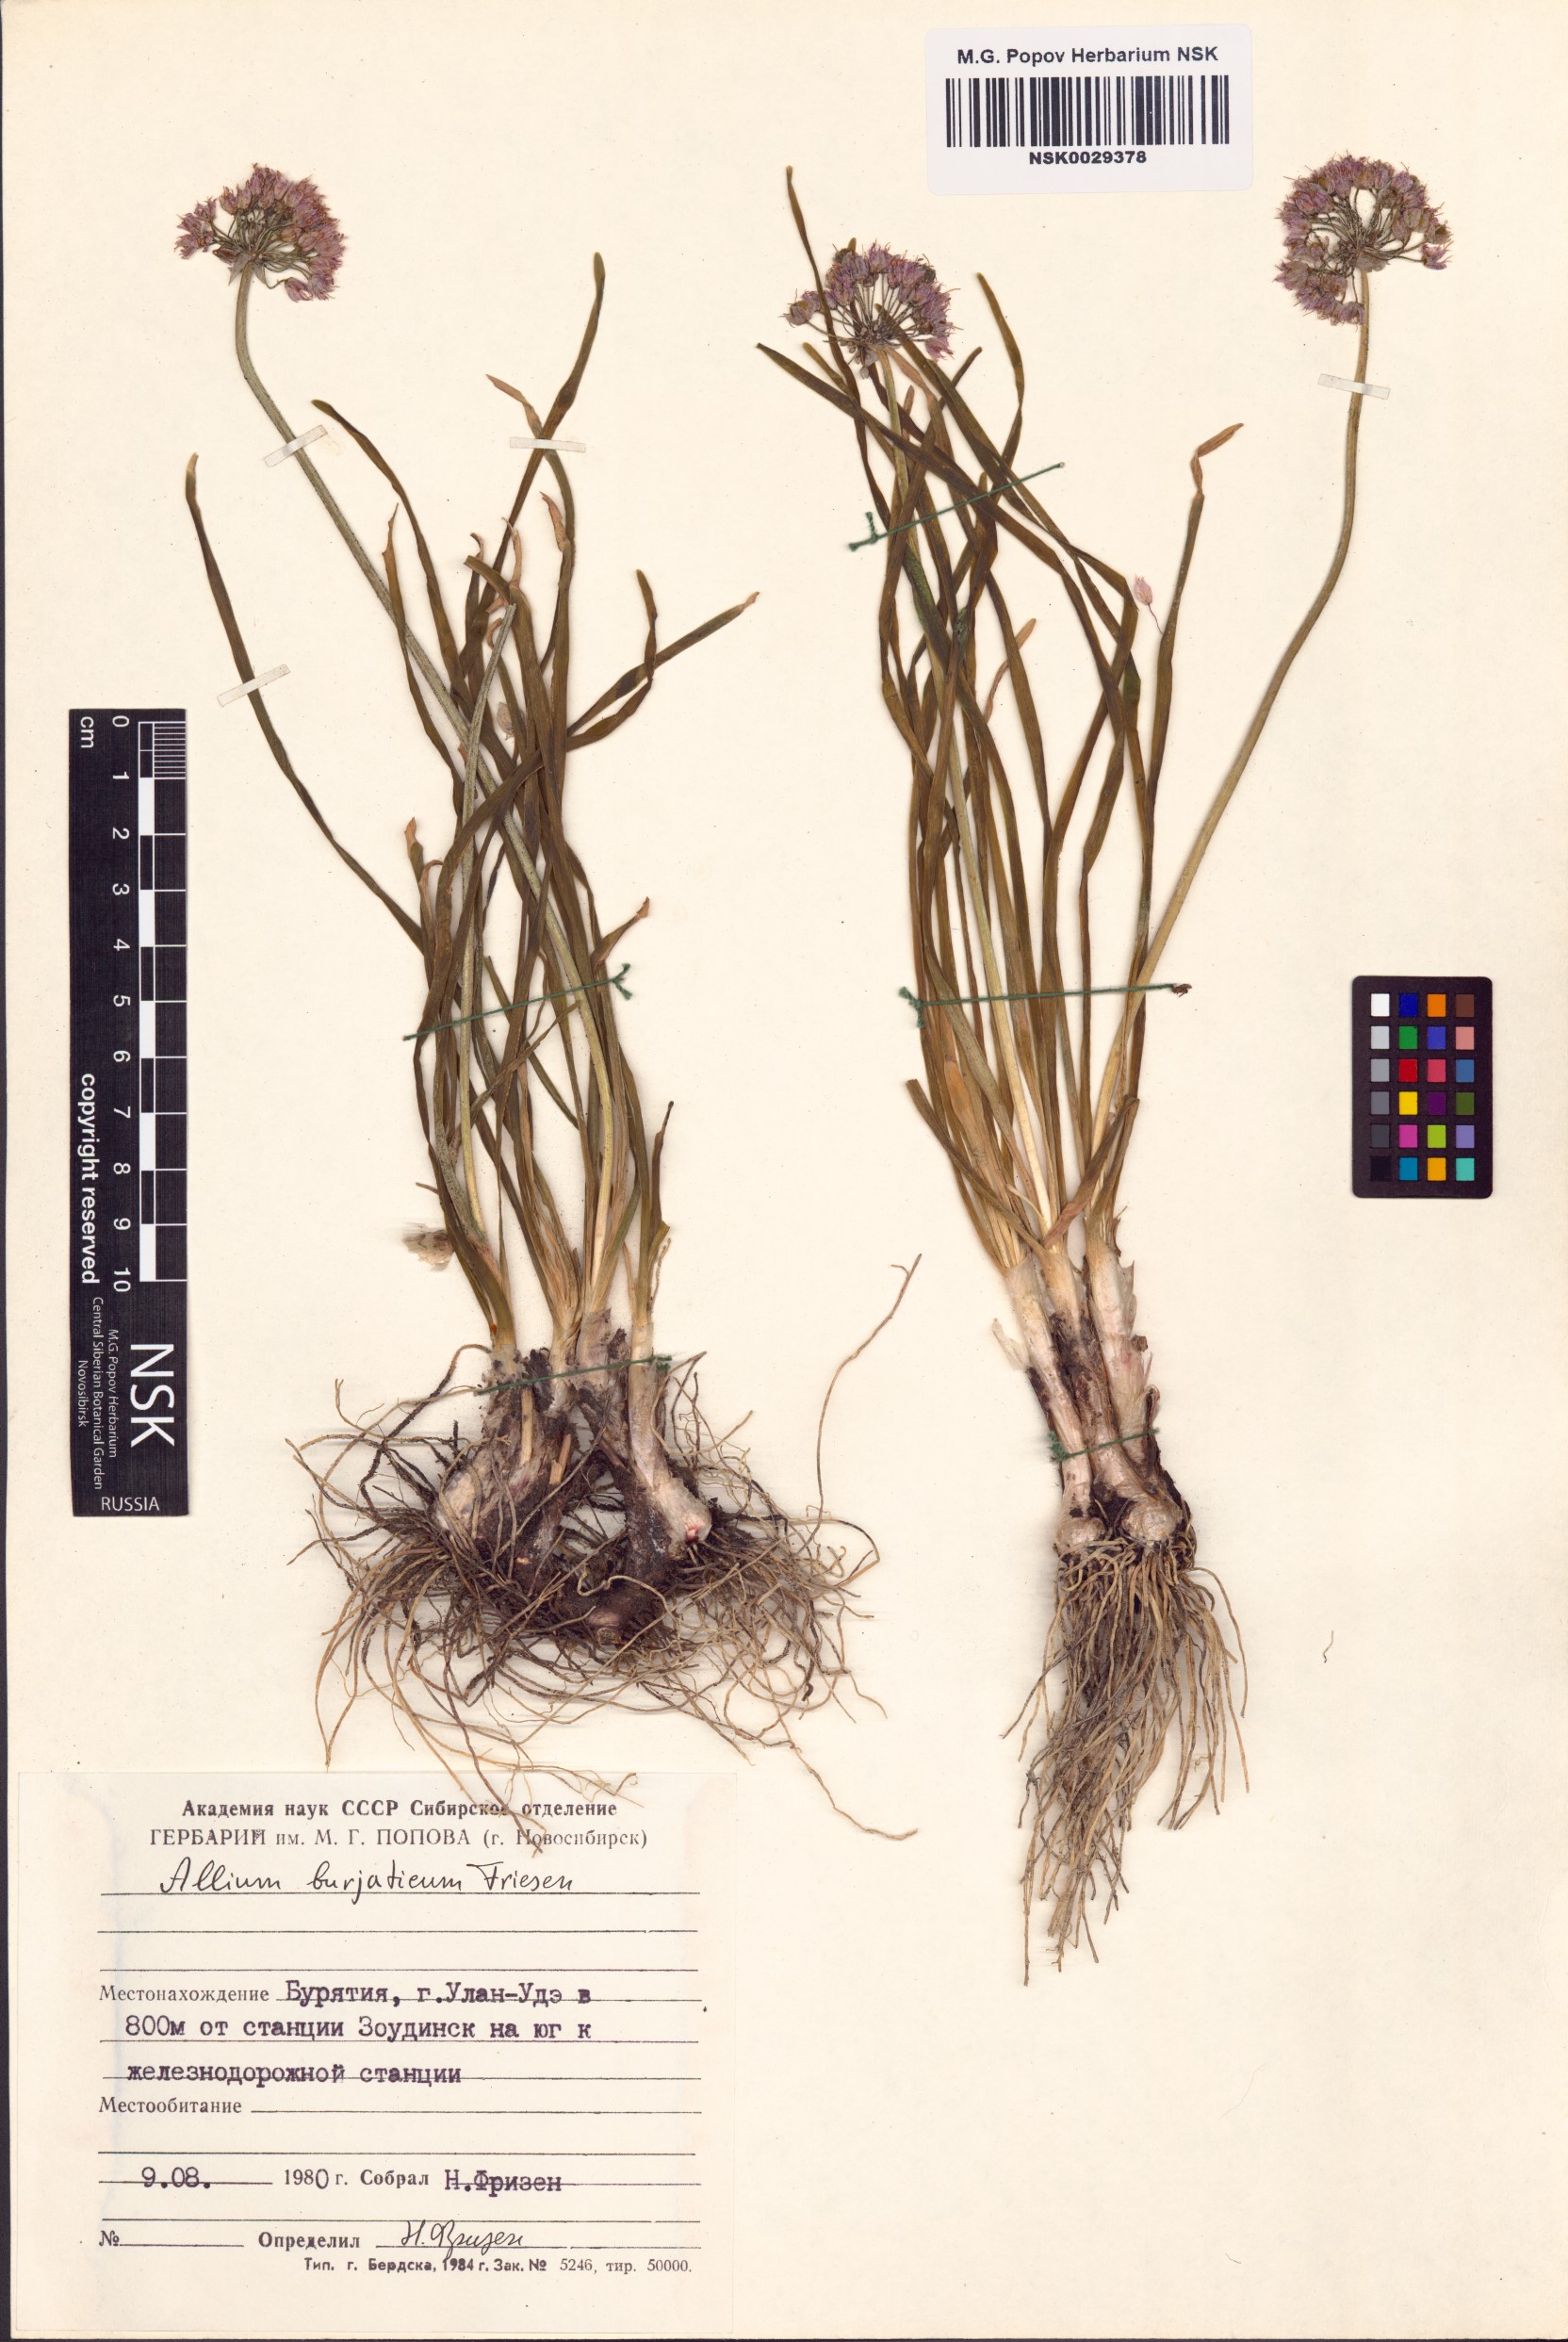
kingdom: Plantae
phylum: Tracheophyta
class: Liliopsida
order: Asparagales
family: Amaryllidaceae
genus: Allium
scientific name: Allium burjaticum
